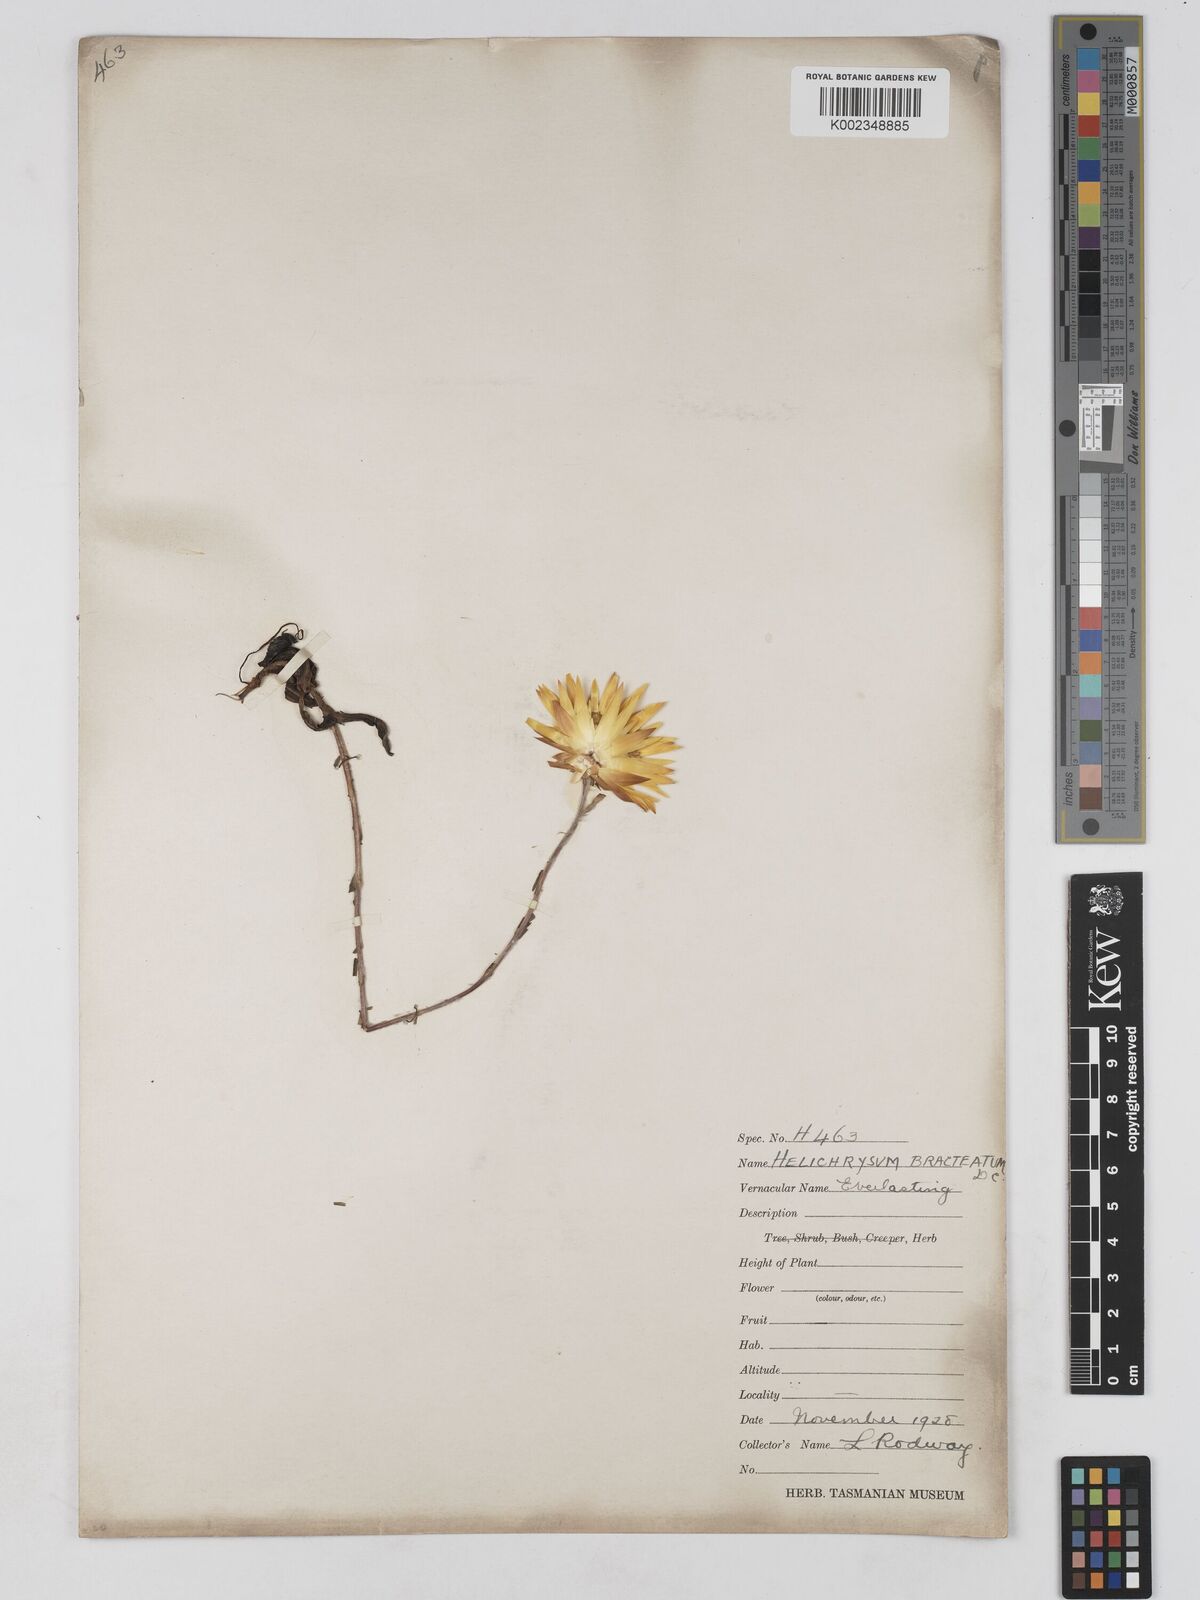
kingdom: Plantae
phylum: Tracheophyta
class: Magnoliopsida
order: Asterales
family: Asteraceae
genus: Xerochrysum
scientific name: Xerochrysum bracteatum
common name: Bracted strawflower
